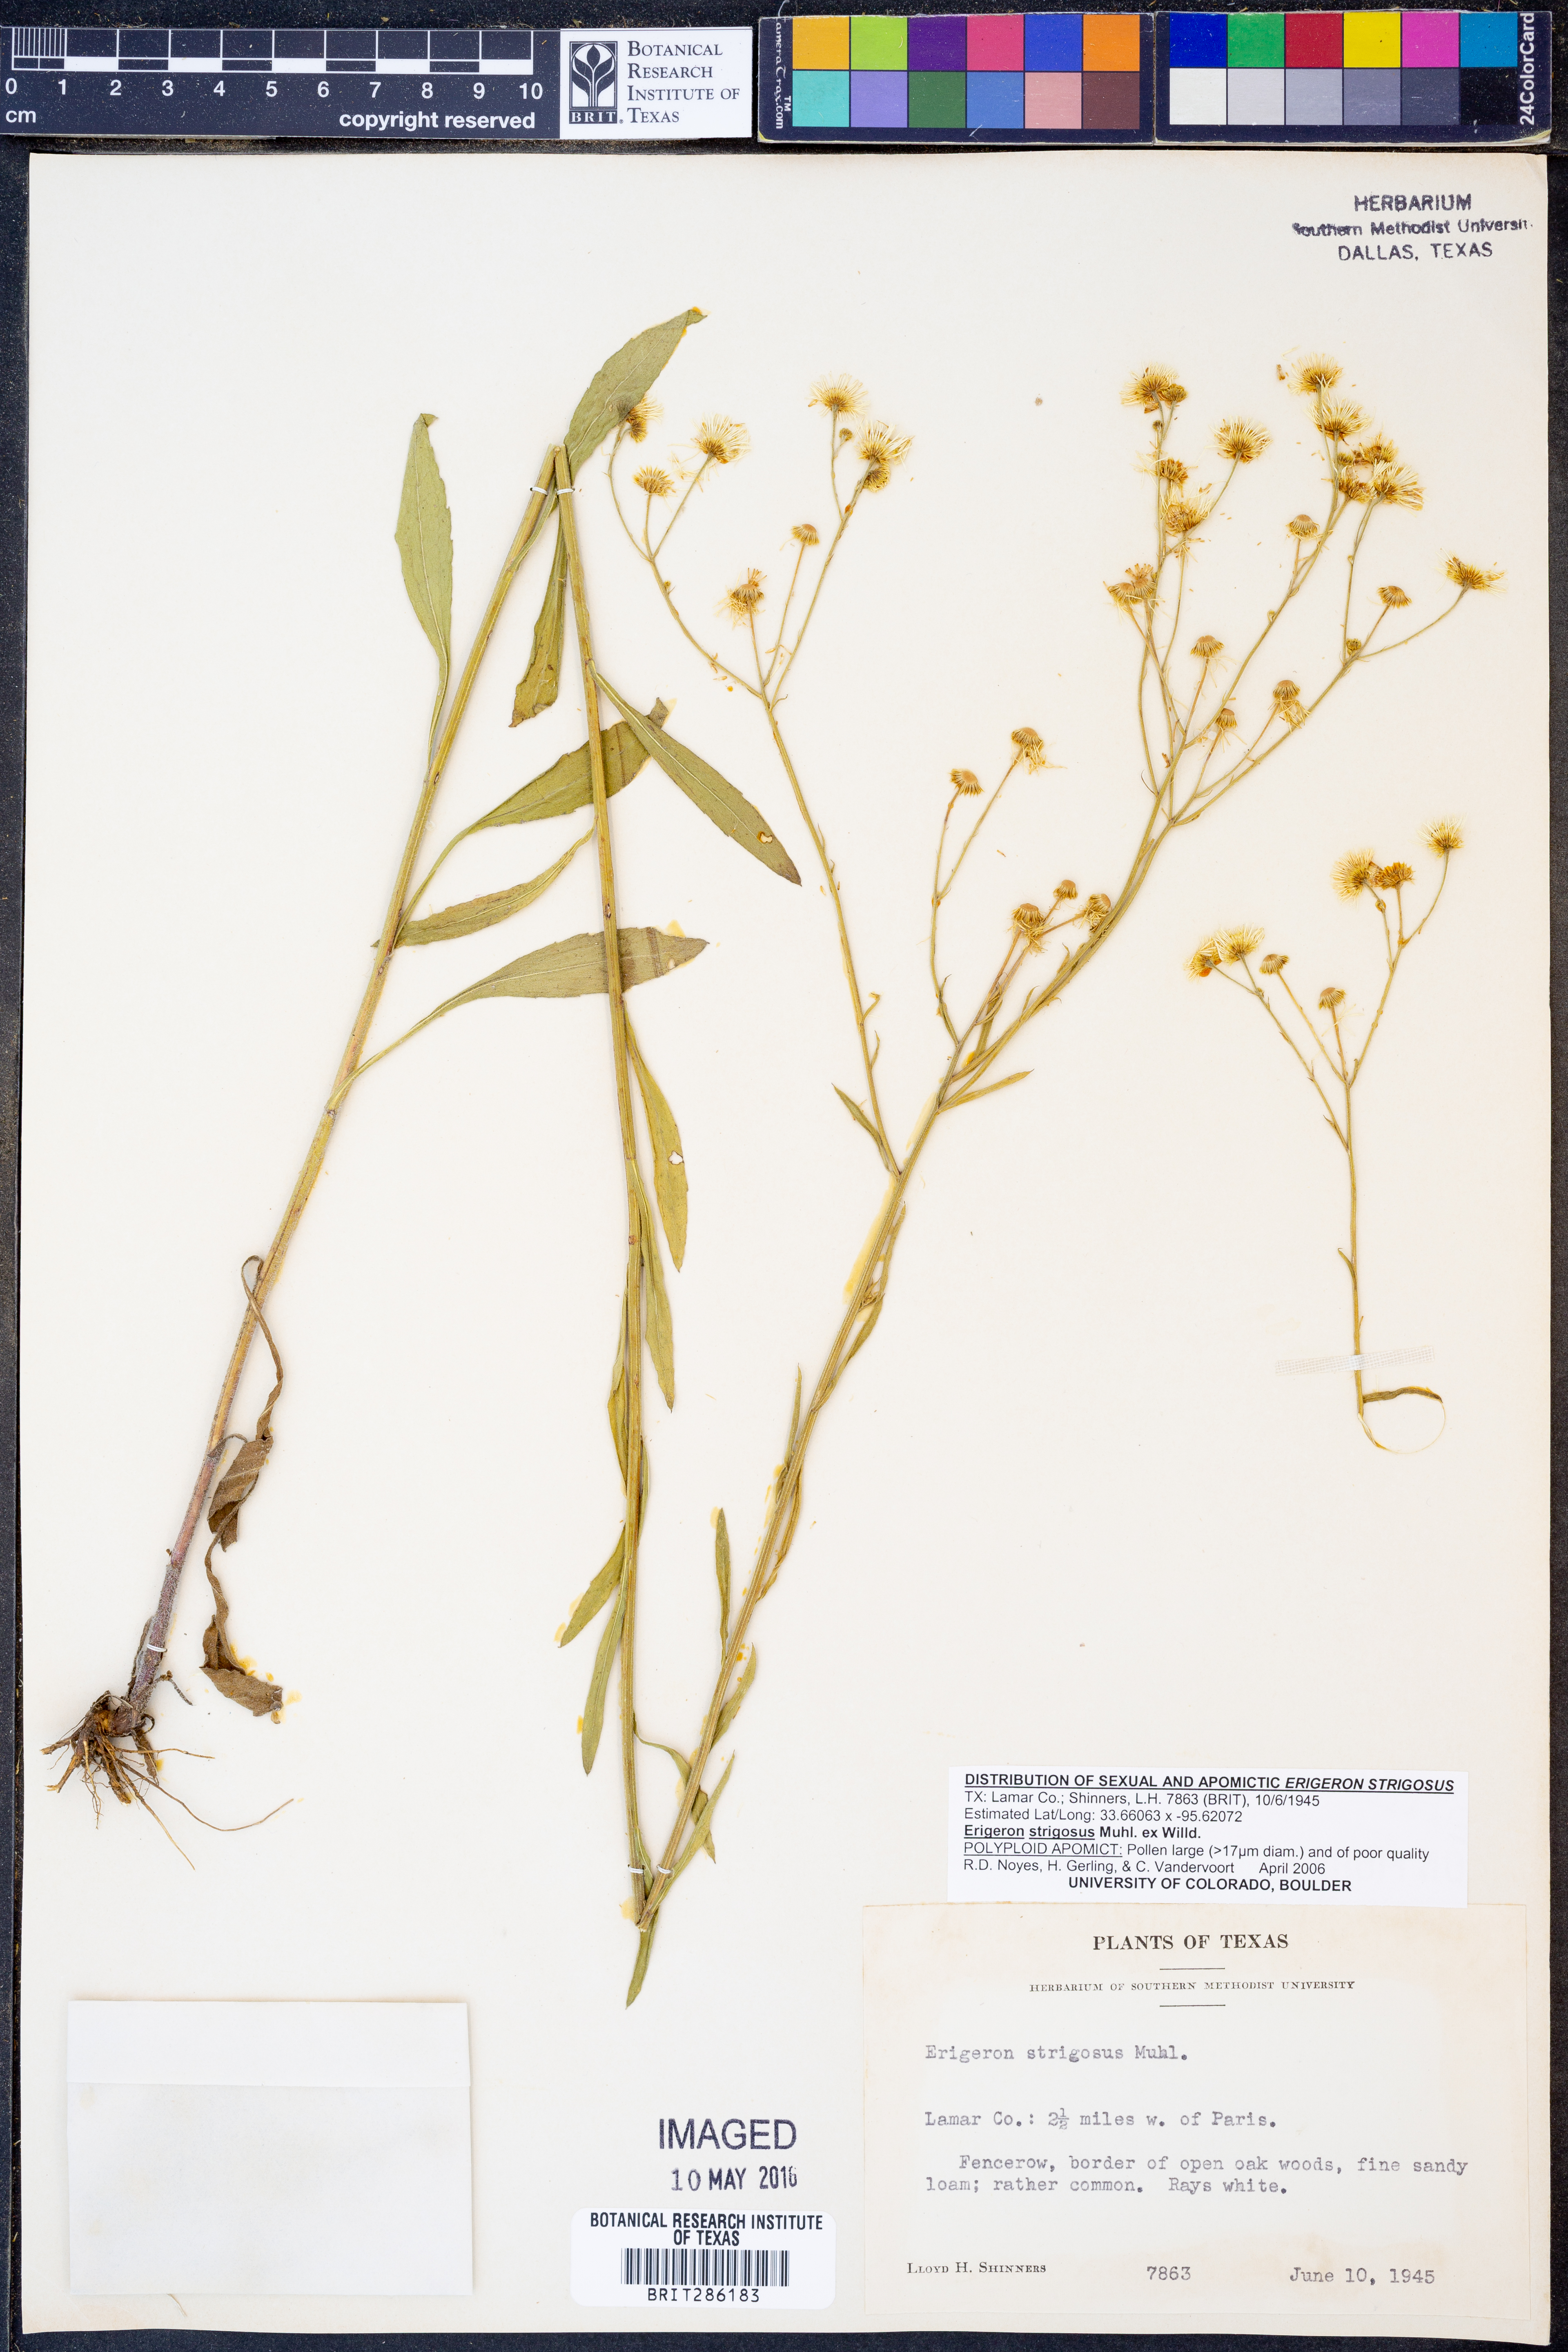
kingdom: Plantae
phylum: Tracheophyta
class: Magnoliopsida
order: Asterales
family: Asteraceae
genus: Erigeron
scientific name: Erigeron strigosus
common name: Common eastern fleabane
